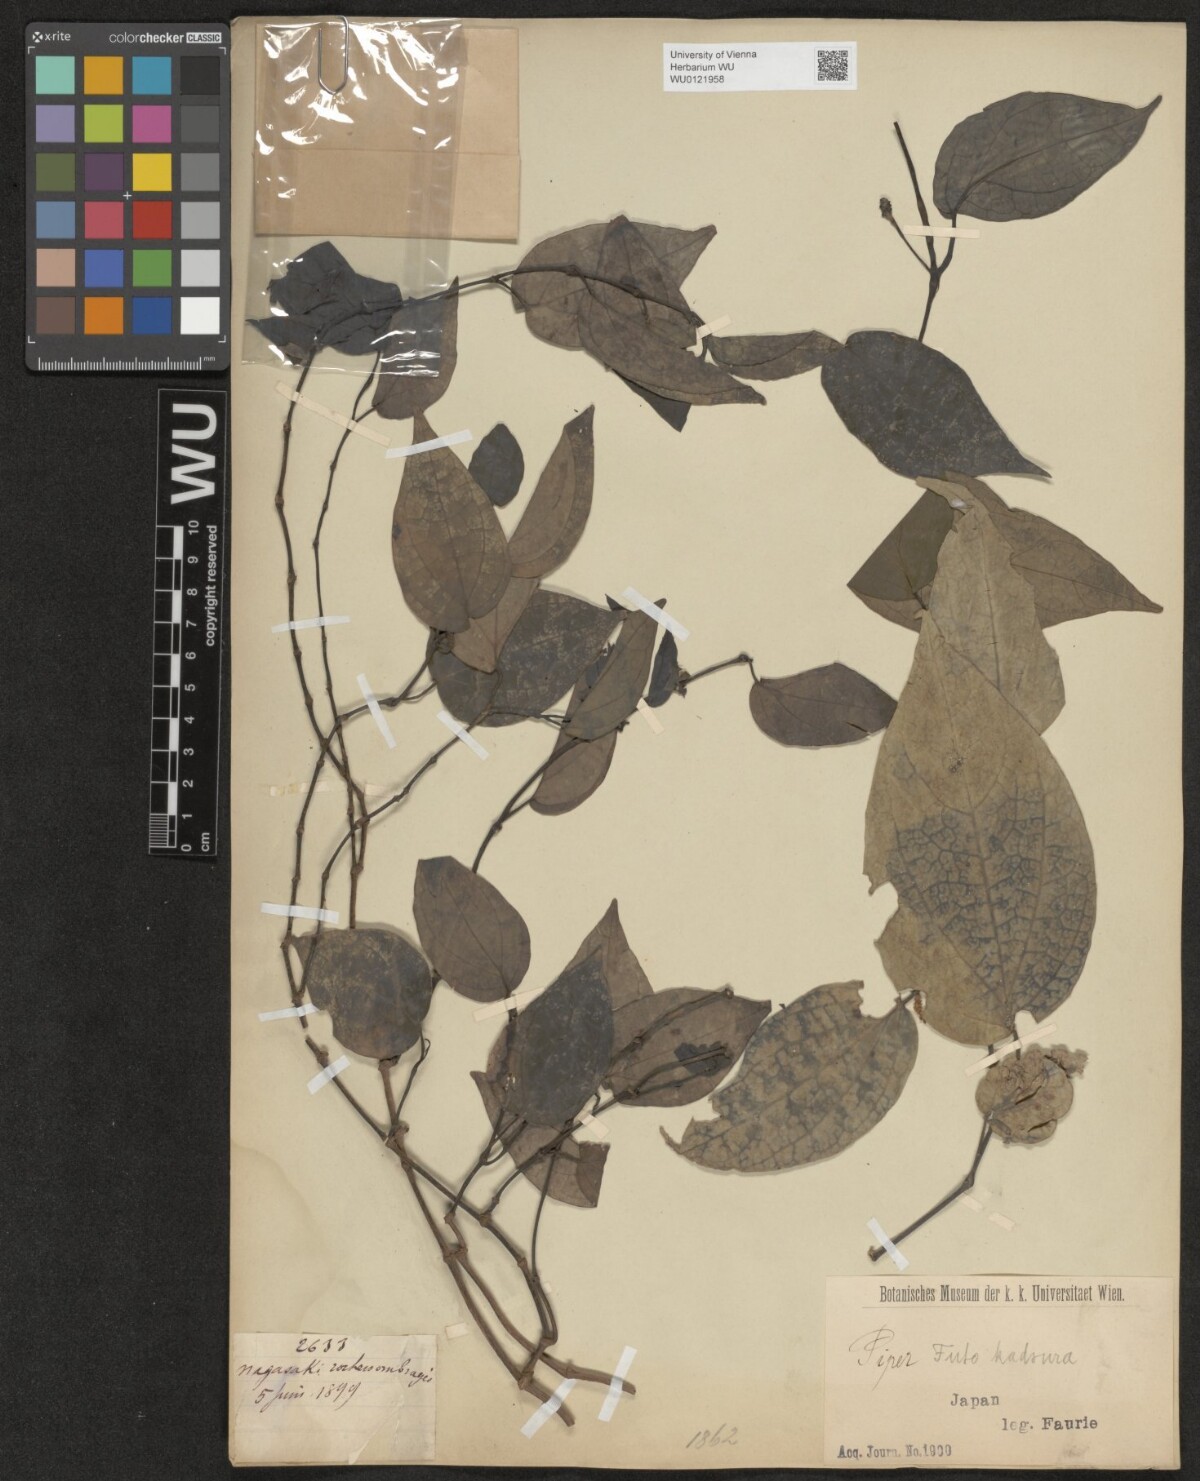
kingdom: Plantae
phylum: Tracheophyta
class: Magnoliopsida
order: Piperales
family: Piperaceae
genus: Piper
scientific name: Piper kadsura
